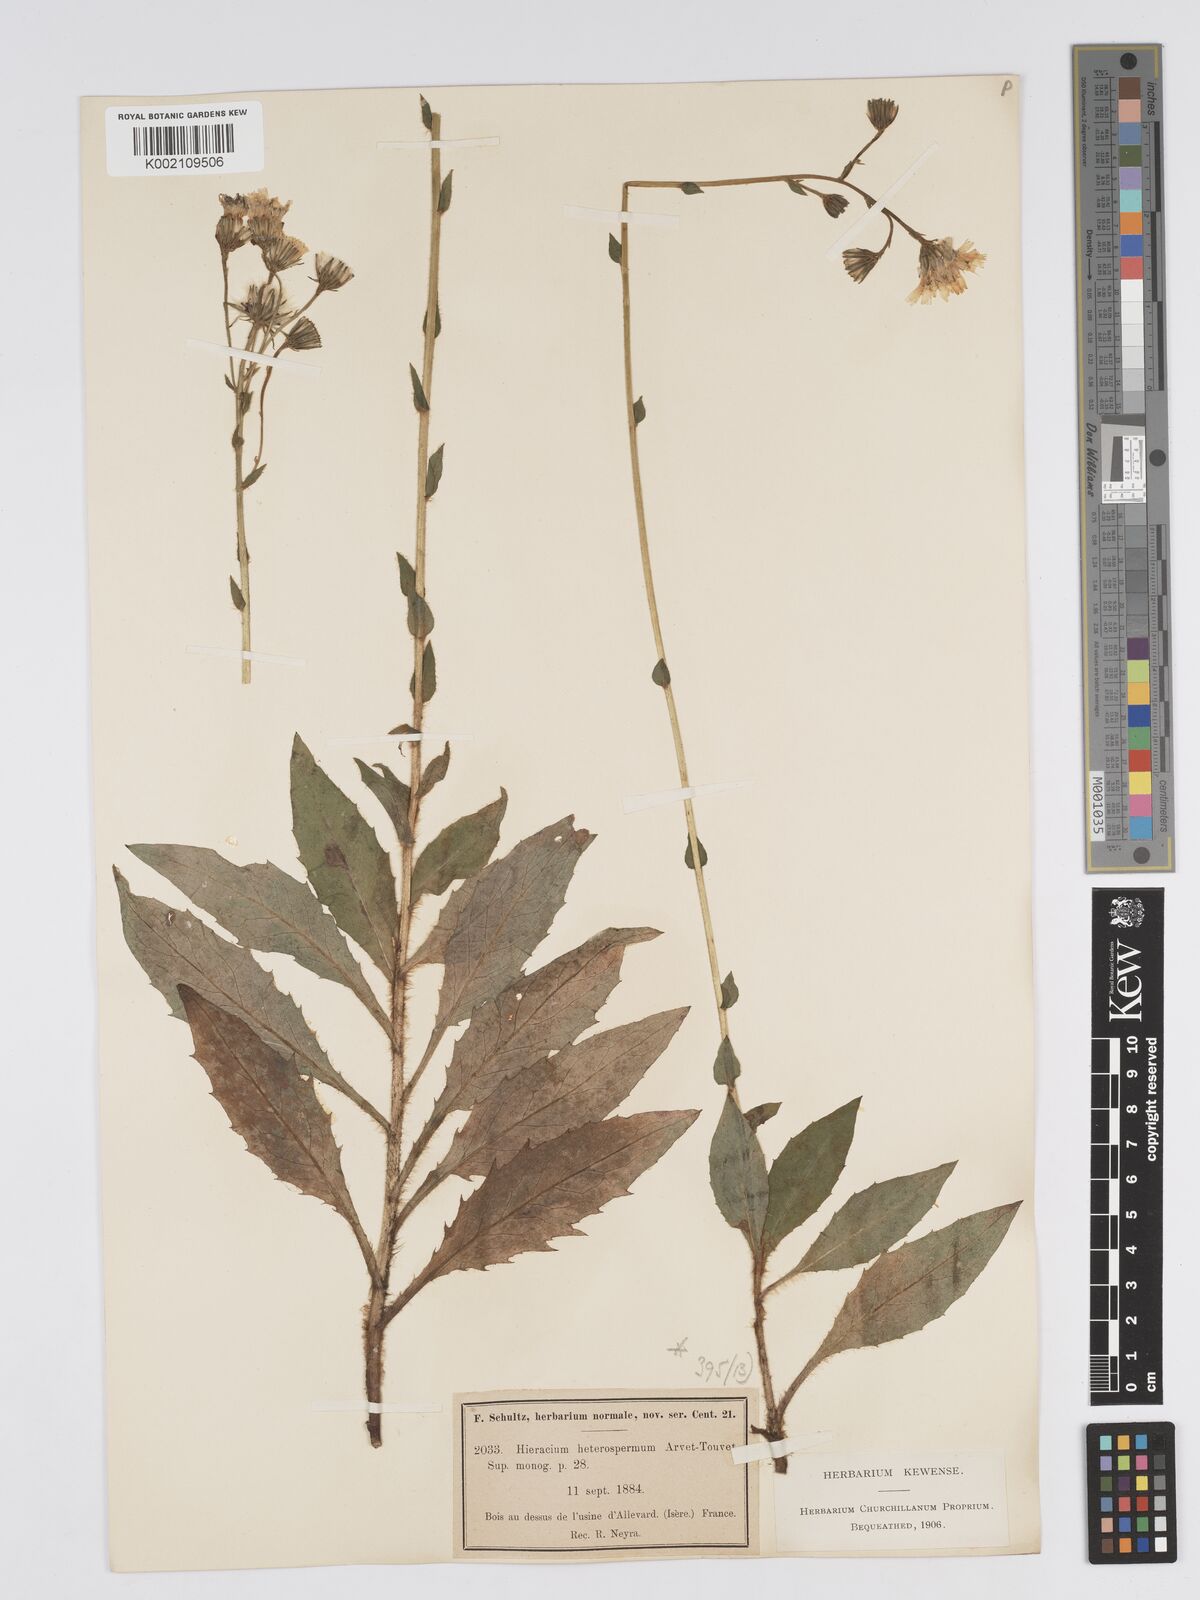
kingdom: Plantae
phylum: Tracheophyta
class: Magnoliopsida
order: Asterales
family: Asteraceae
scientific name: Asteraceae
